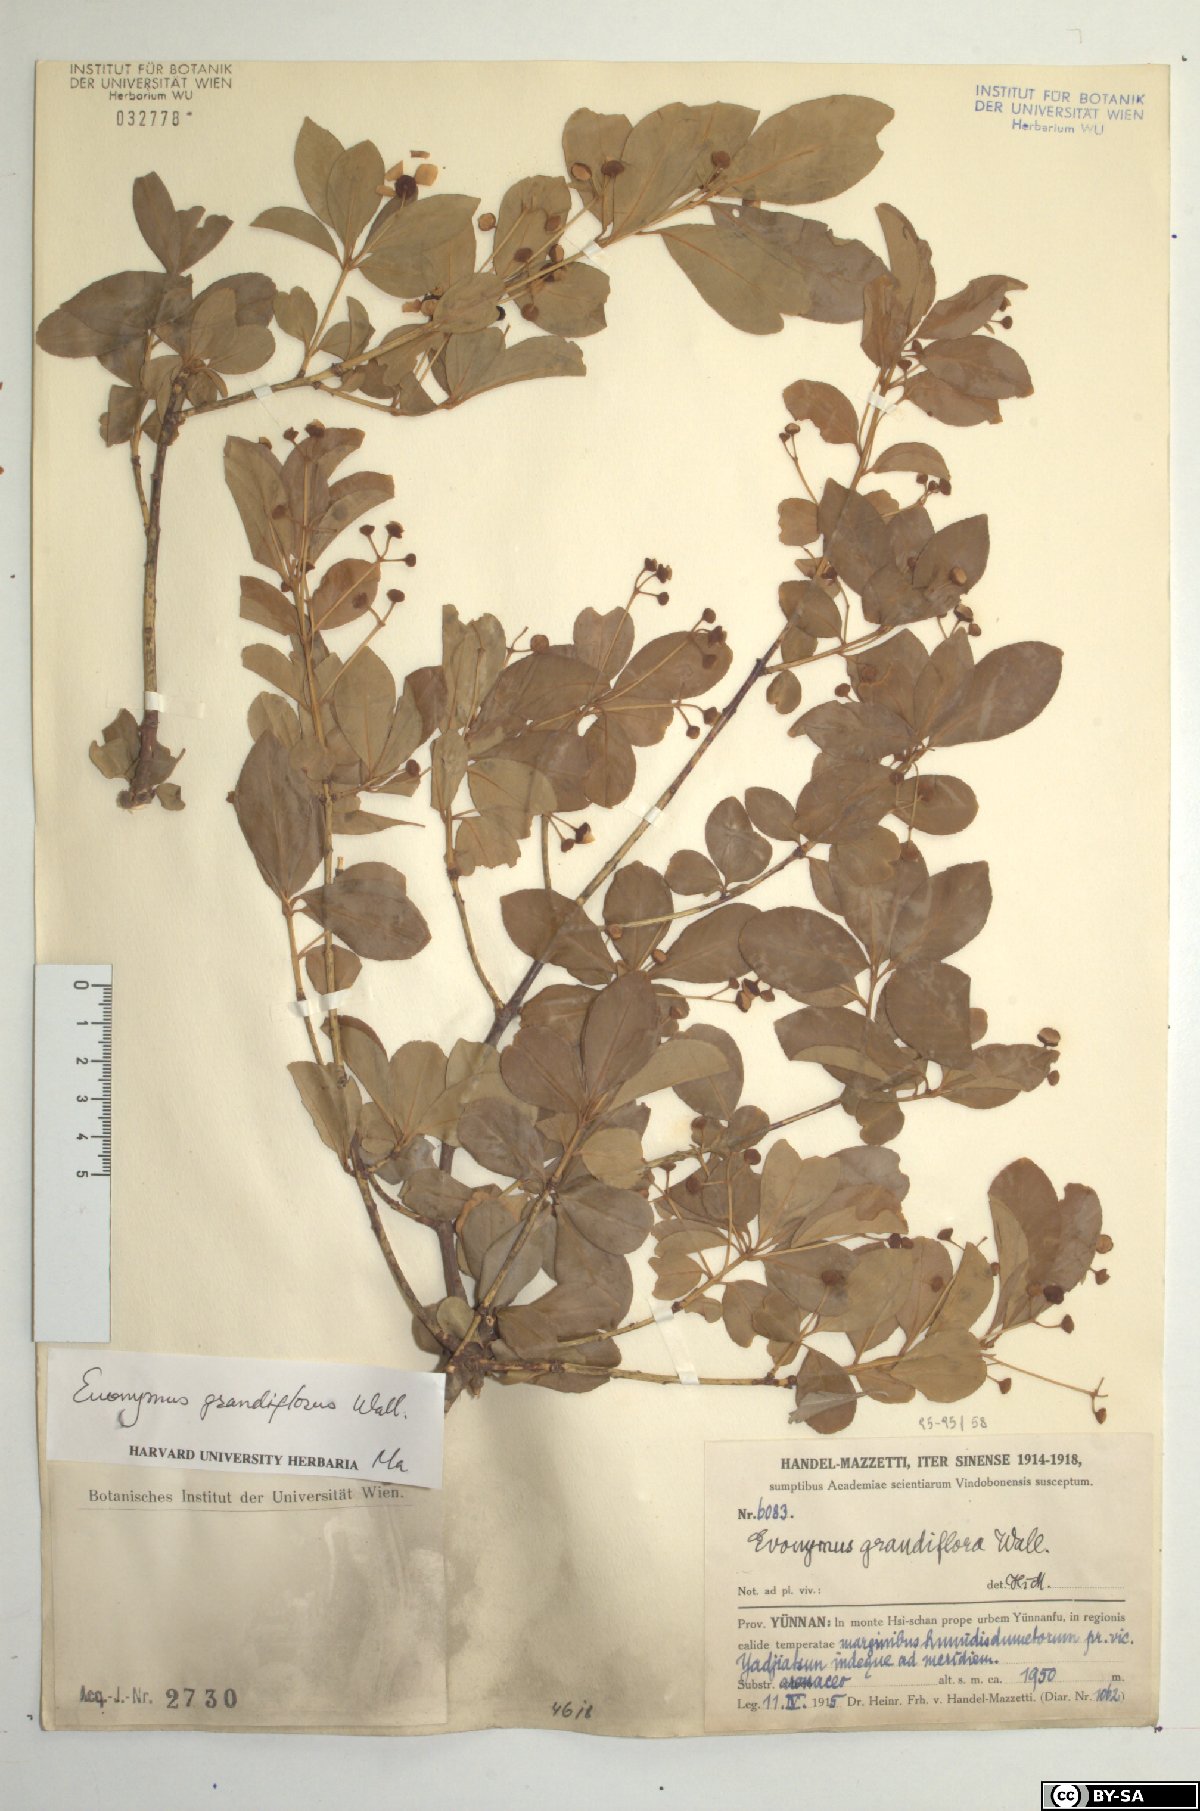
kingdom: Plantae
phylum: Tracheophyta
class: Magnoliopsida
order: Celastrales
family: Celastraceae
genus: Euonymus
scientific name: Euonymus grandiflorus
